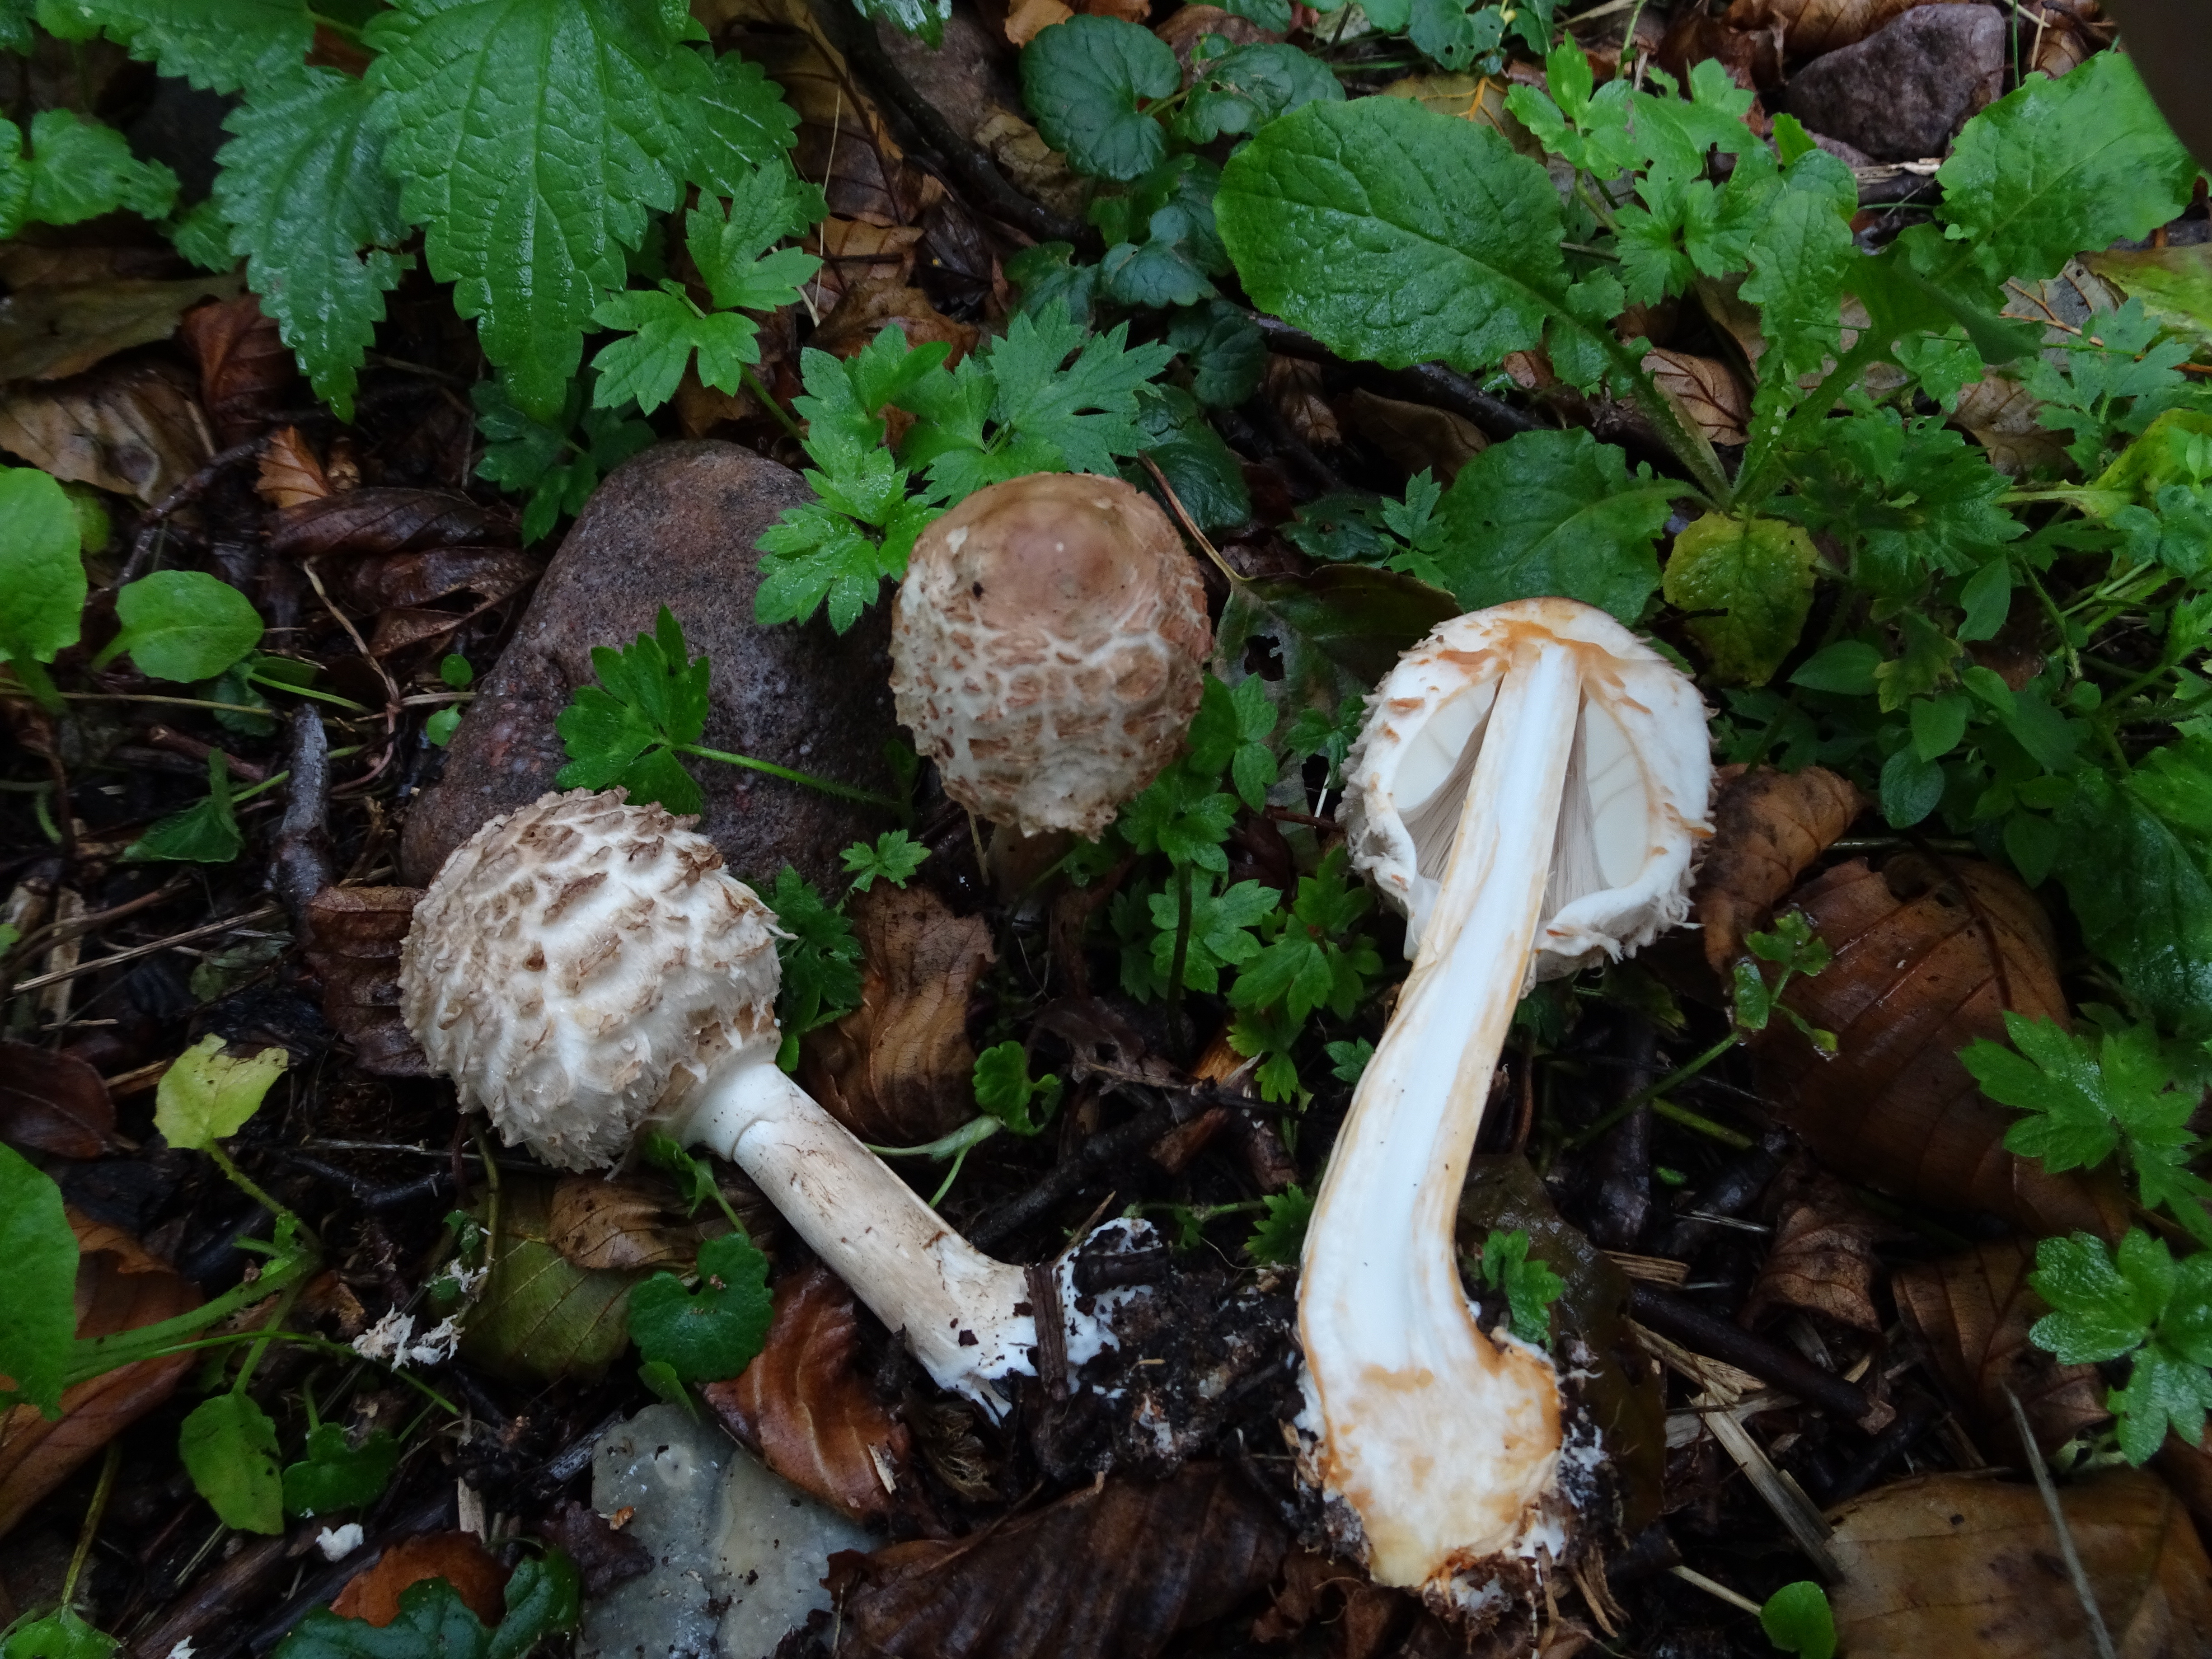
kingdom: Fungi
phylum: Basidiomycota
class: Agaricomycetes
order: Agaricales
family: Agaricaceae
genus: Chlorophyllum
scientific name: Chlorophyllum olivieri
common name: Conifer parasol
